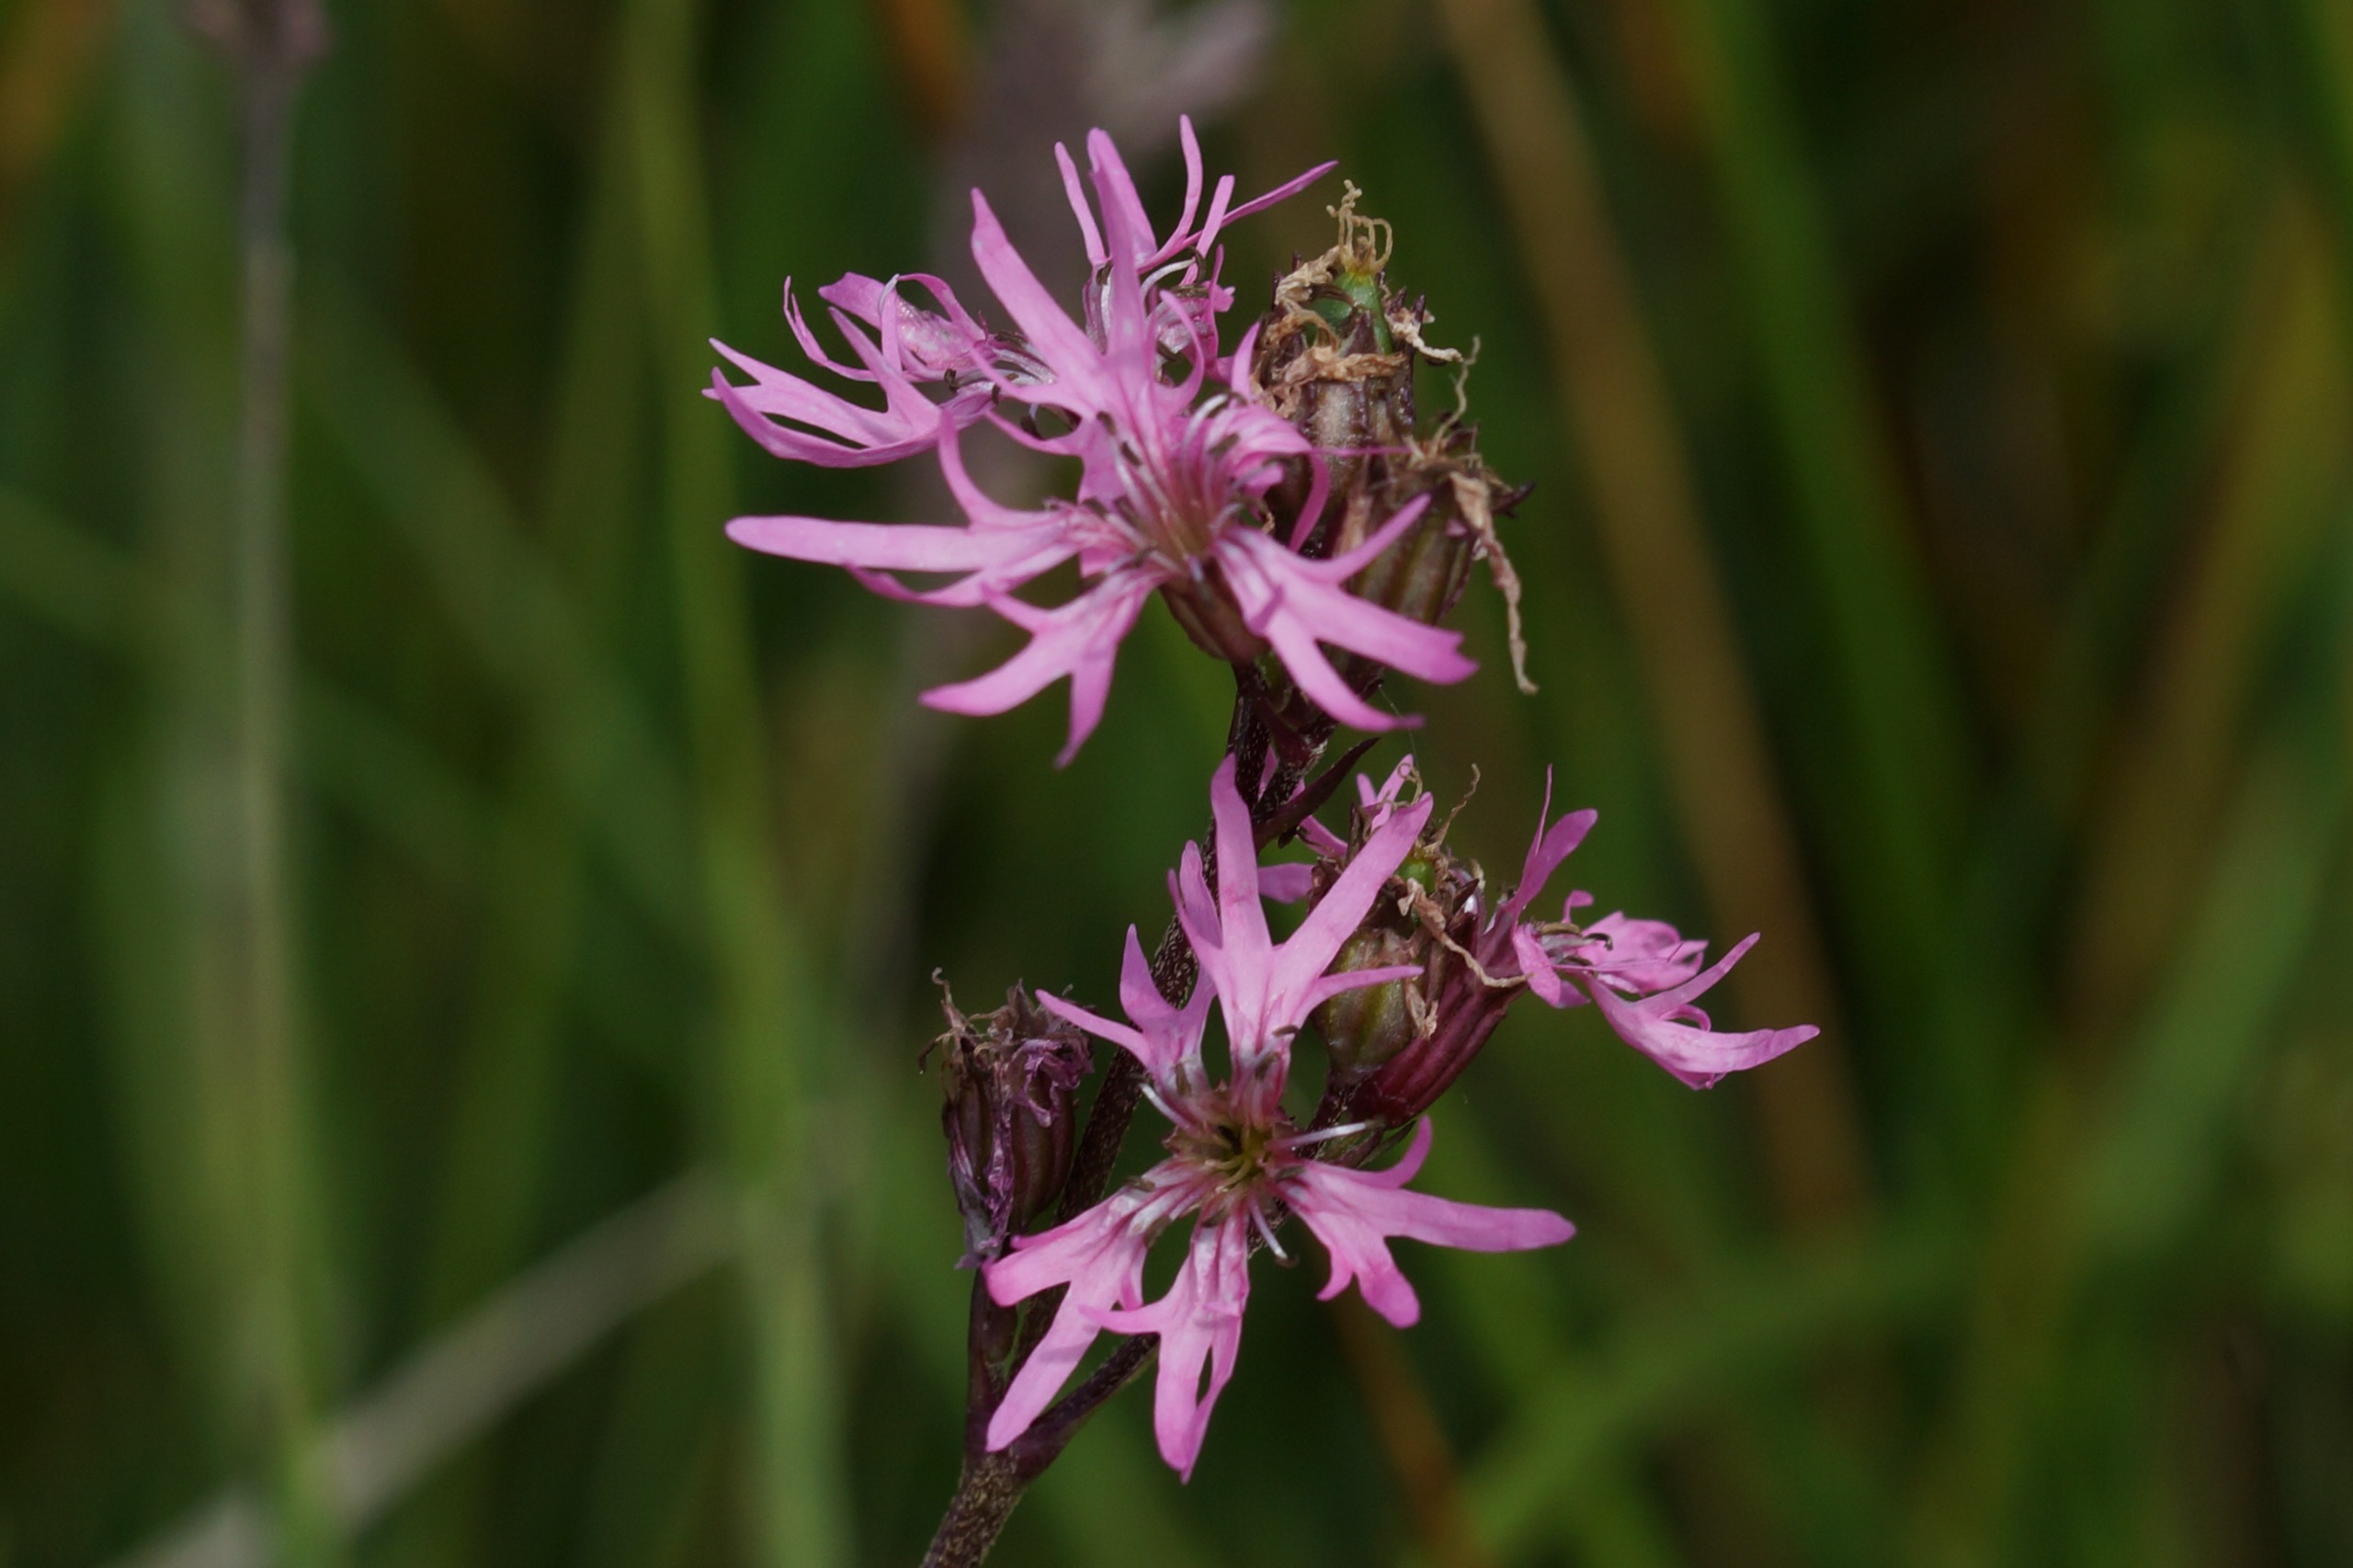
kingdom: Plantae
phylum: Tracheophyta
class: Magnoliopsida
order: Caryophyllales
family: Caryophyllaceae
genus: Silene
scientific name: Silene flos-cuculi
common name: Trævlekrone
